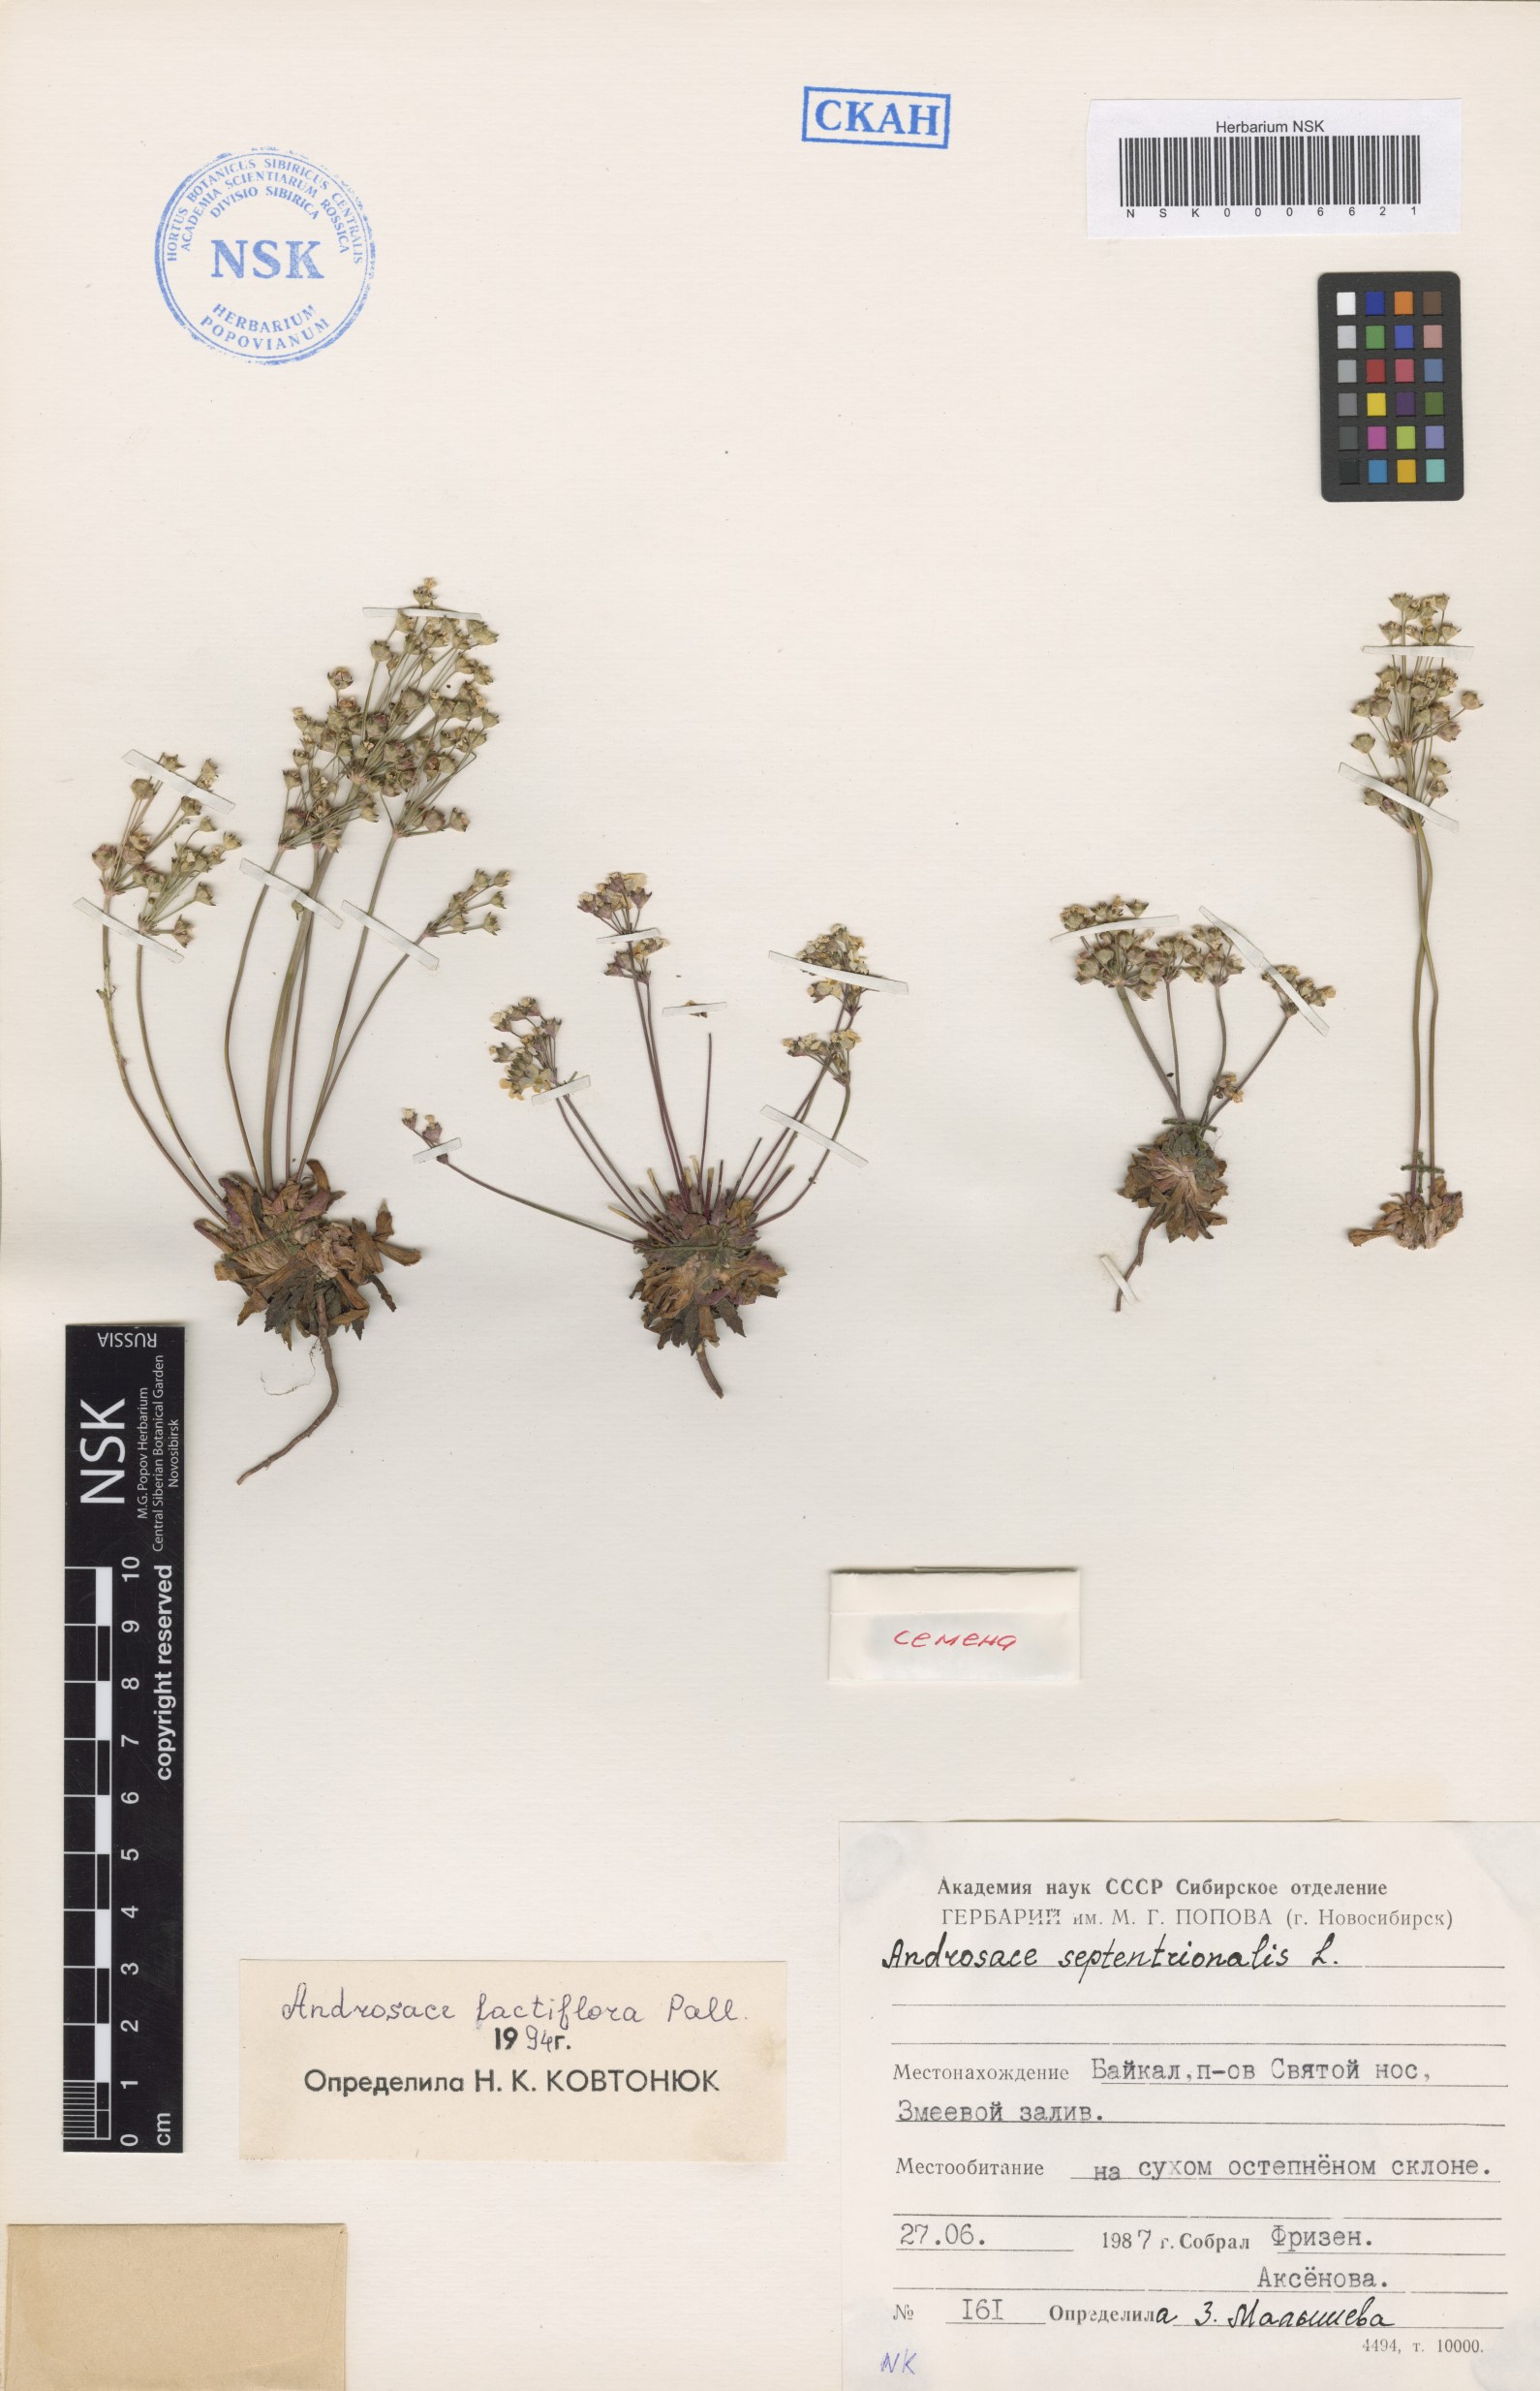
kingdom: Plantae
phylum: Tracheophyta
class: Magnoliopsida
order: Ericales
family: Primulaceae
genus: Androsace
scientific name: Androsace lactiflora
